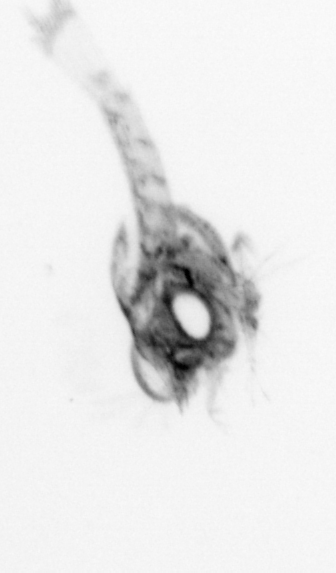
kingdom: Animalia
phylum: Arthropoda
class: Malacostraca
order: Decapoda
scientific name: Decapoda
